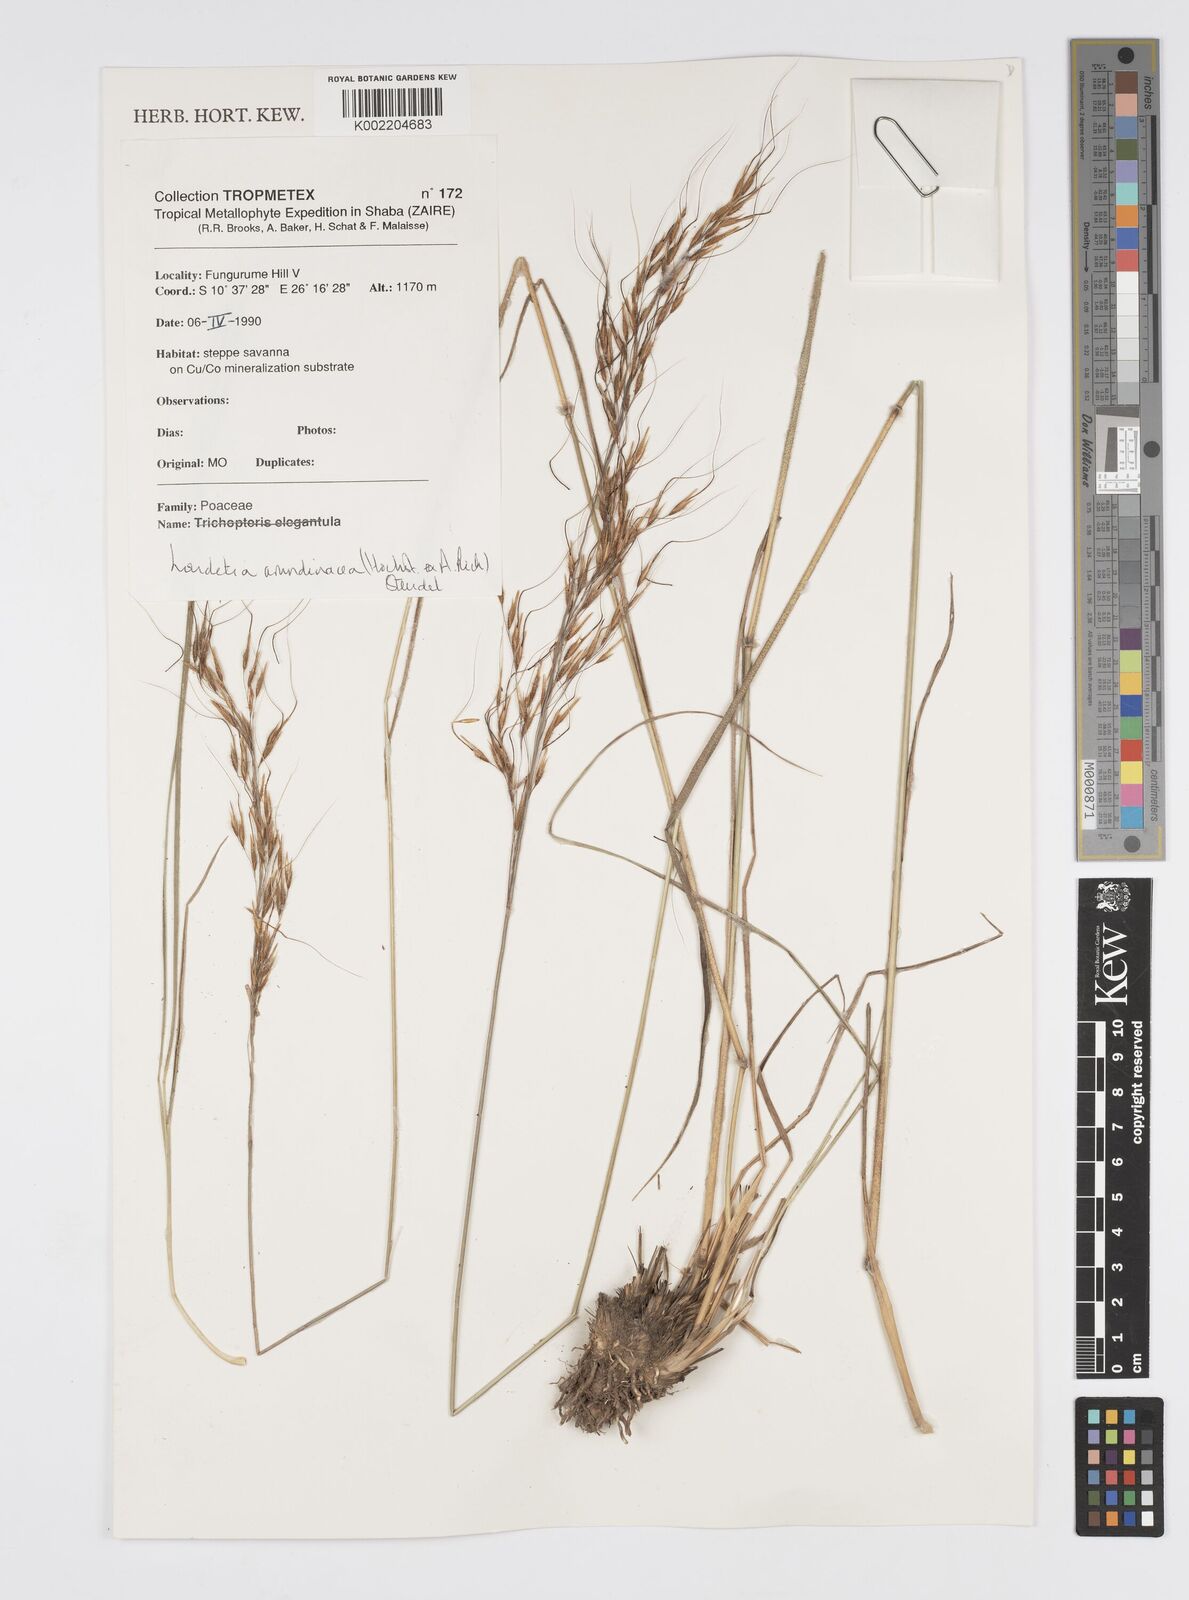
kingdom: Plantae
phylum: Tracheophyta
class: Liliopsida
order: Poales
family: Poaceae
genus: Loudetia
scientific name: Loudetia arundinacea
